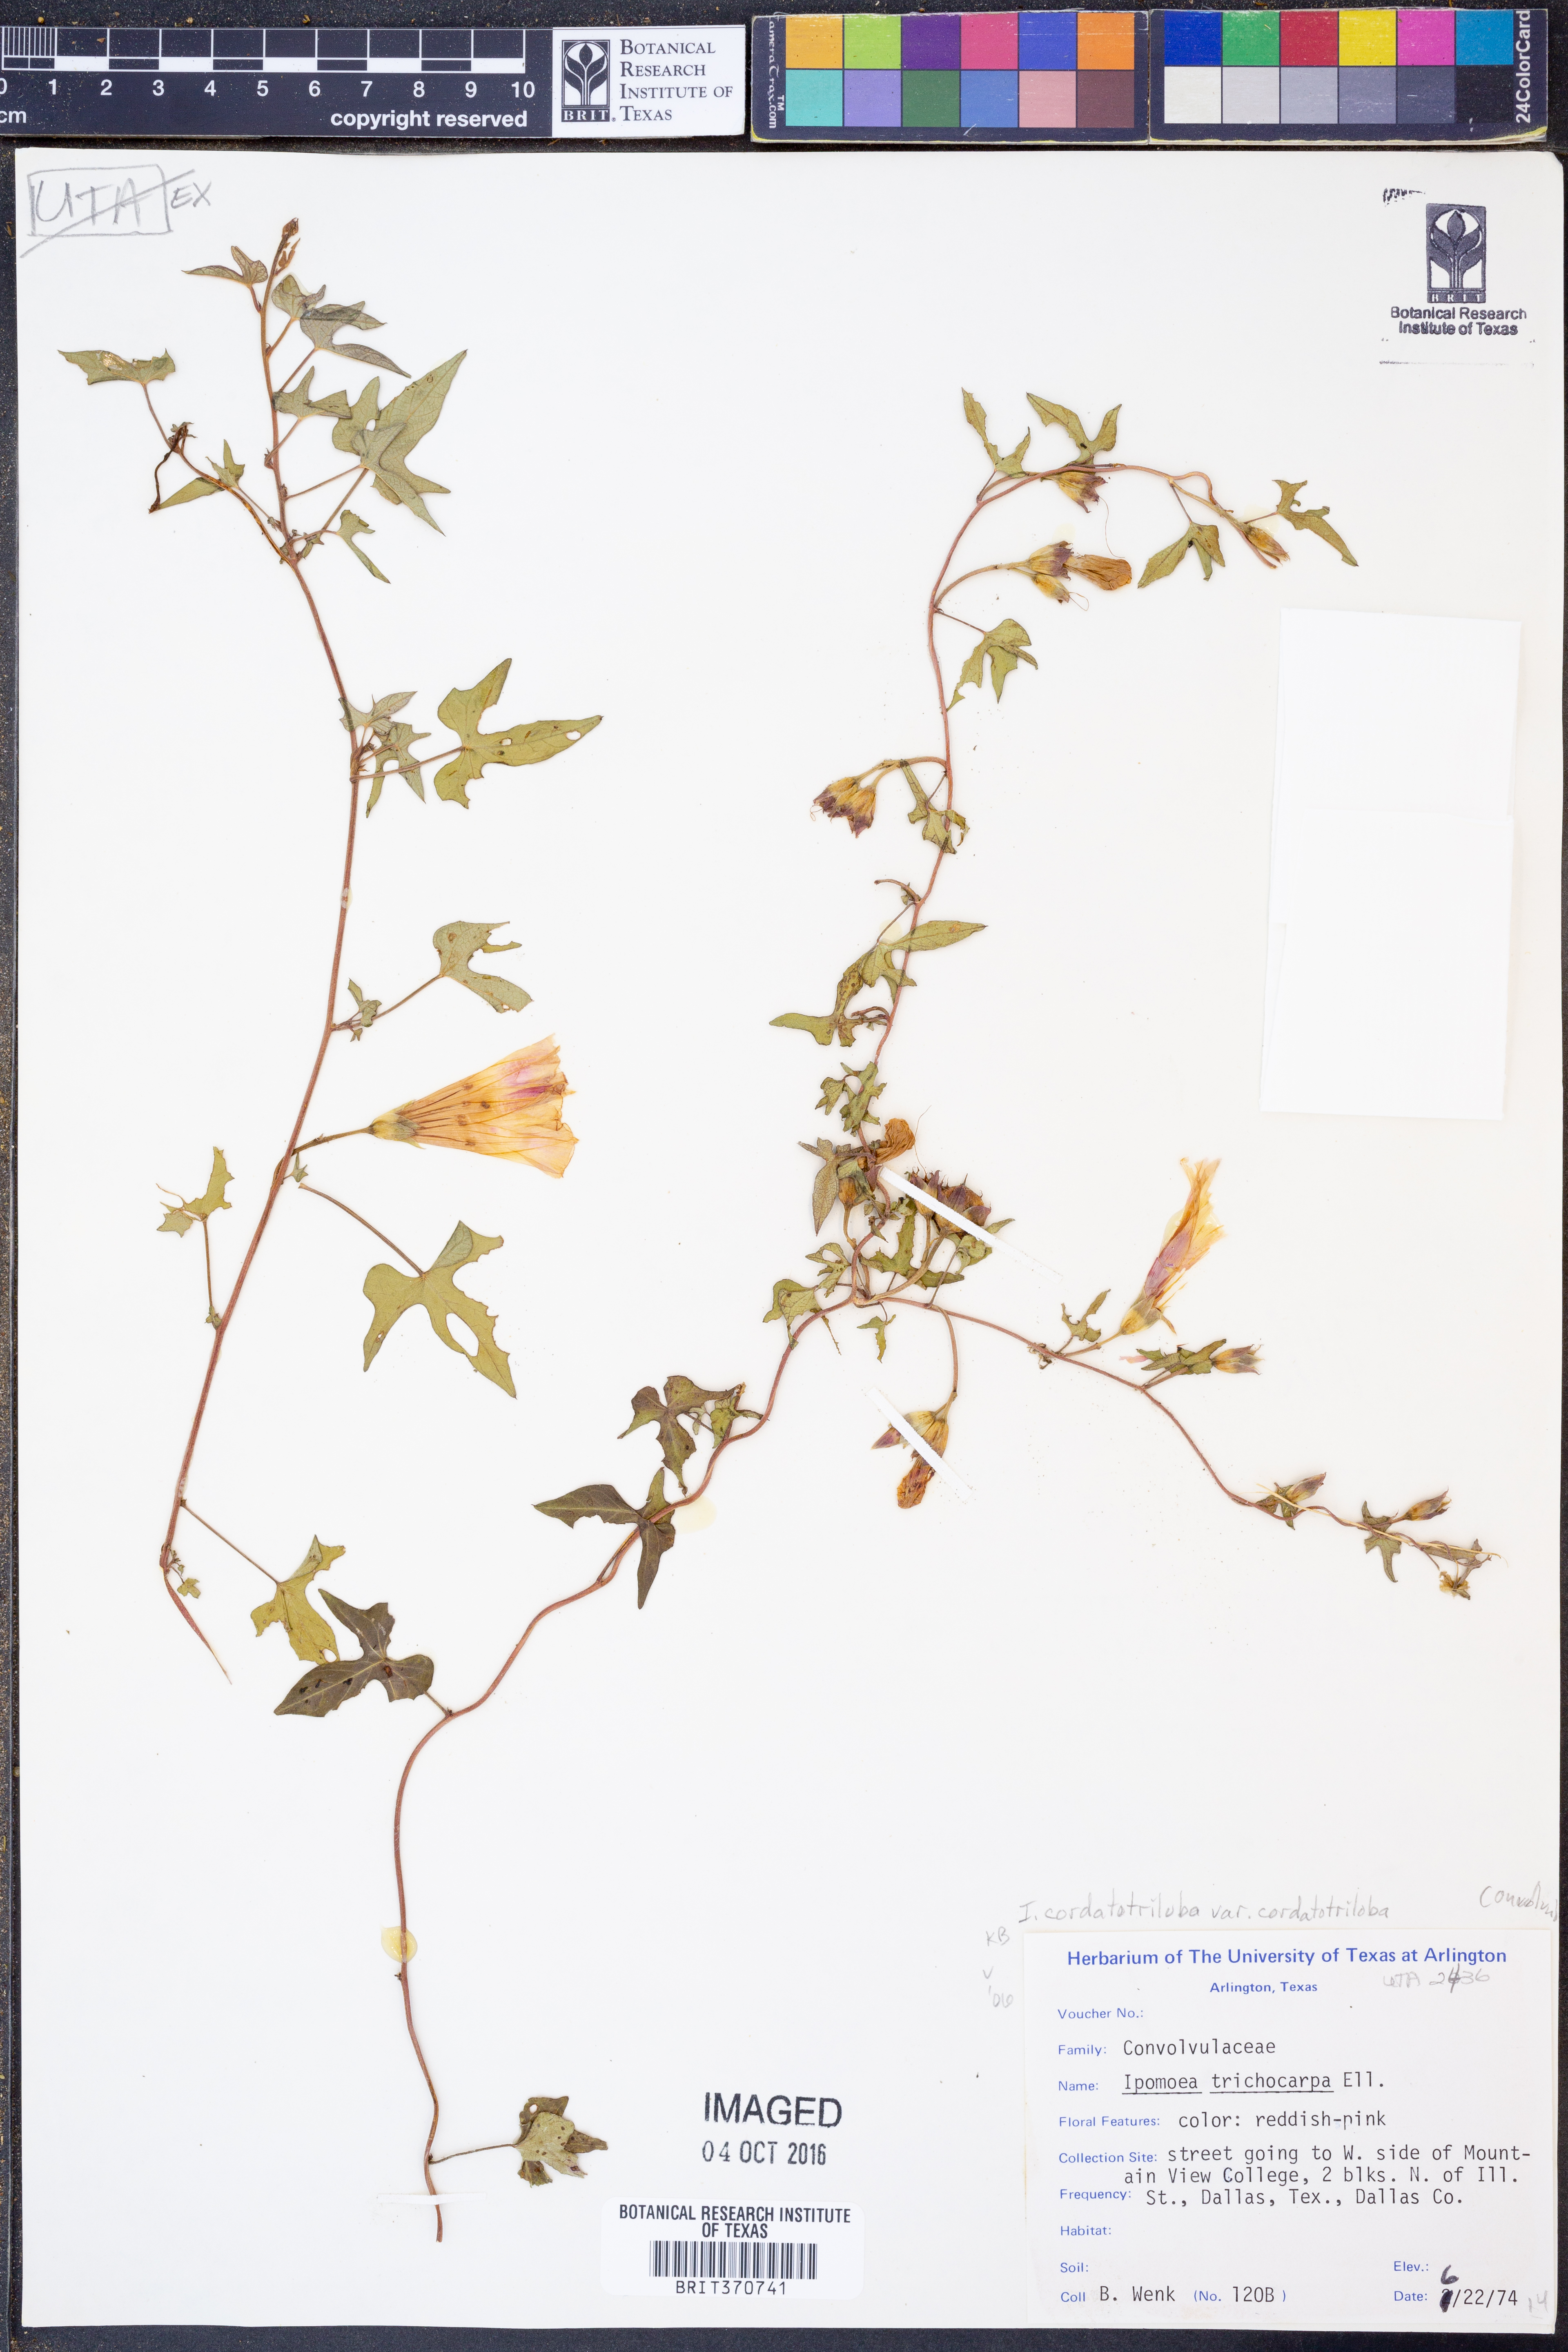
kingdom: Plantae
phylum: Tracheophyta
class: Magnoliopsida
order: Solanales
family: Convolvulaceae
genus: Ipomoea
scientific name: Ipomoea cordatotriloba
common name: Cotton morning glory
